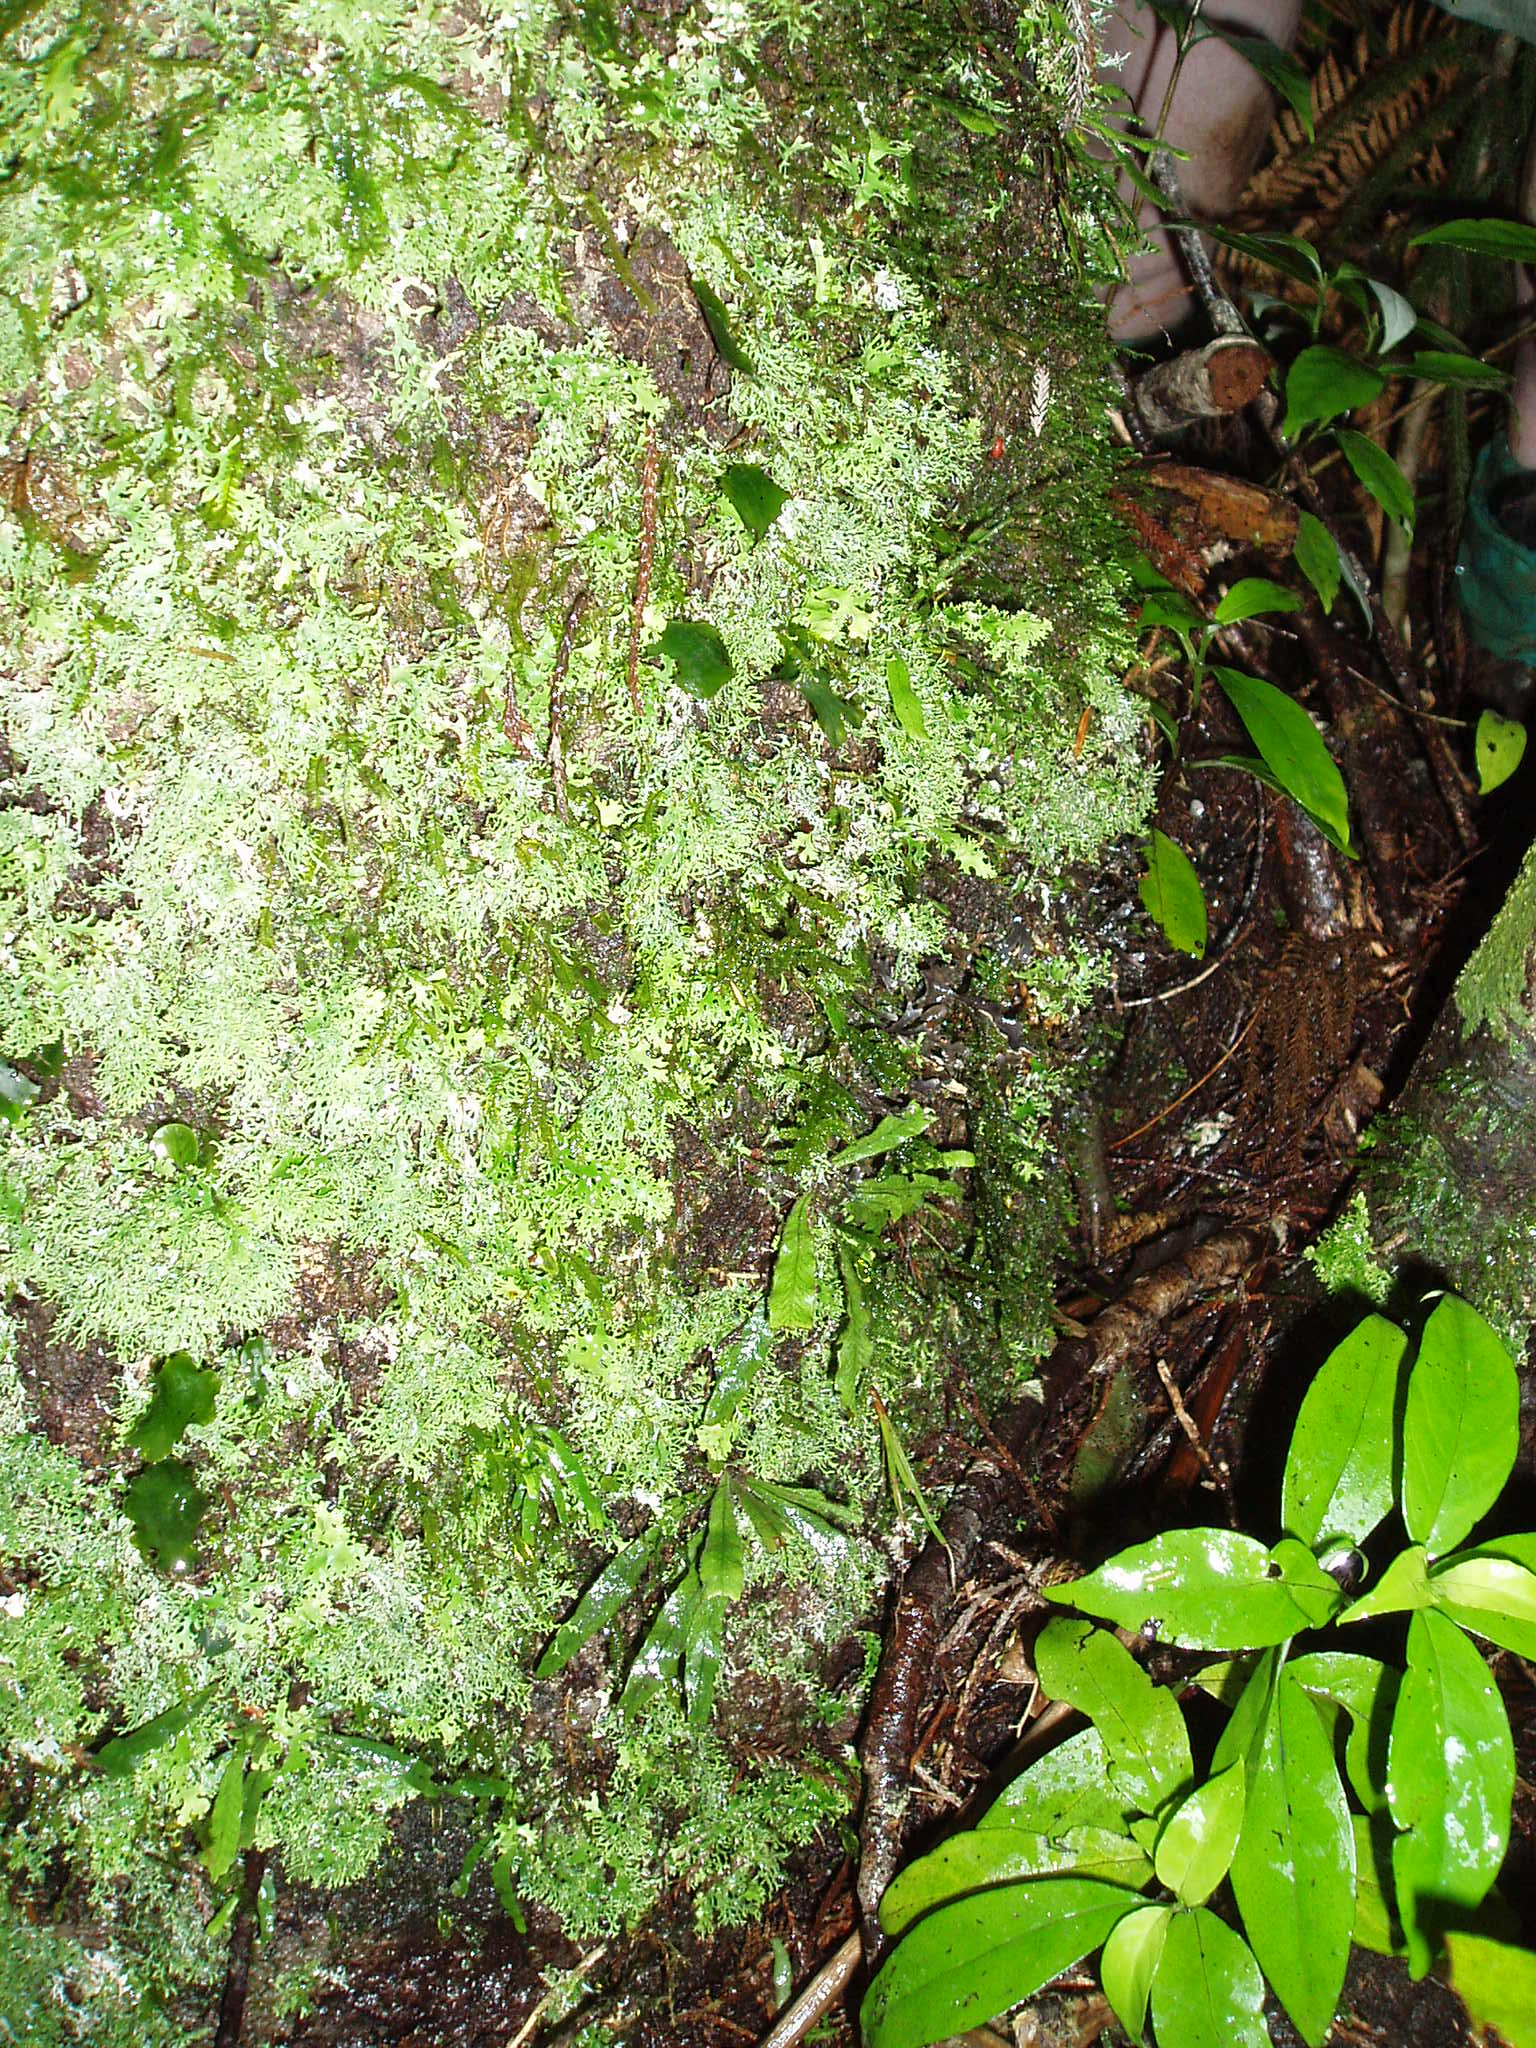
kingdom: Plantae
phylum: Tracheophyta
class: Polypodiopsida
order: Polypodiales
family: Polypodiaceae
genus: Notogrammitis
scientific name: Notogrammitis pseudociliata
